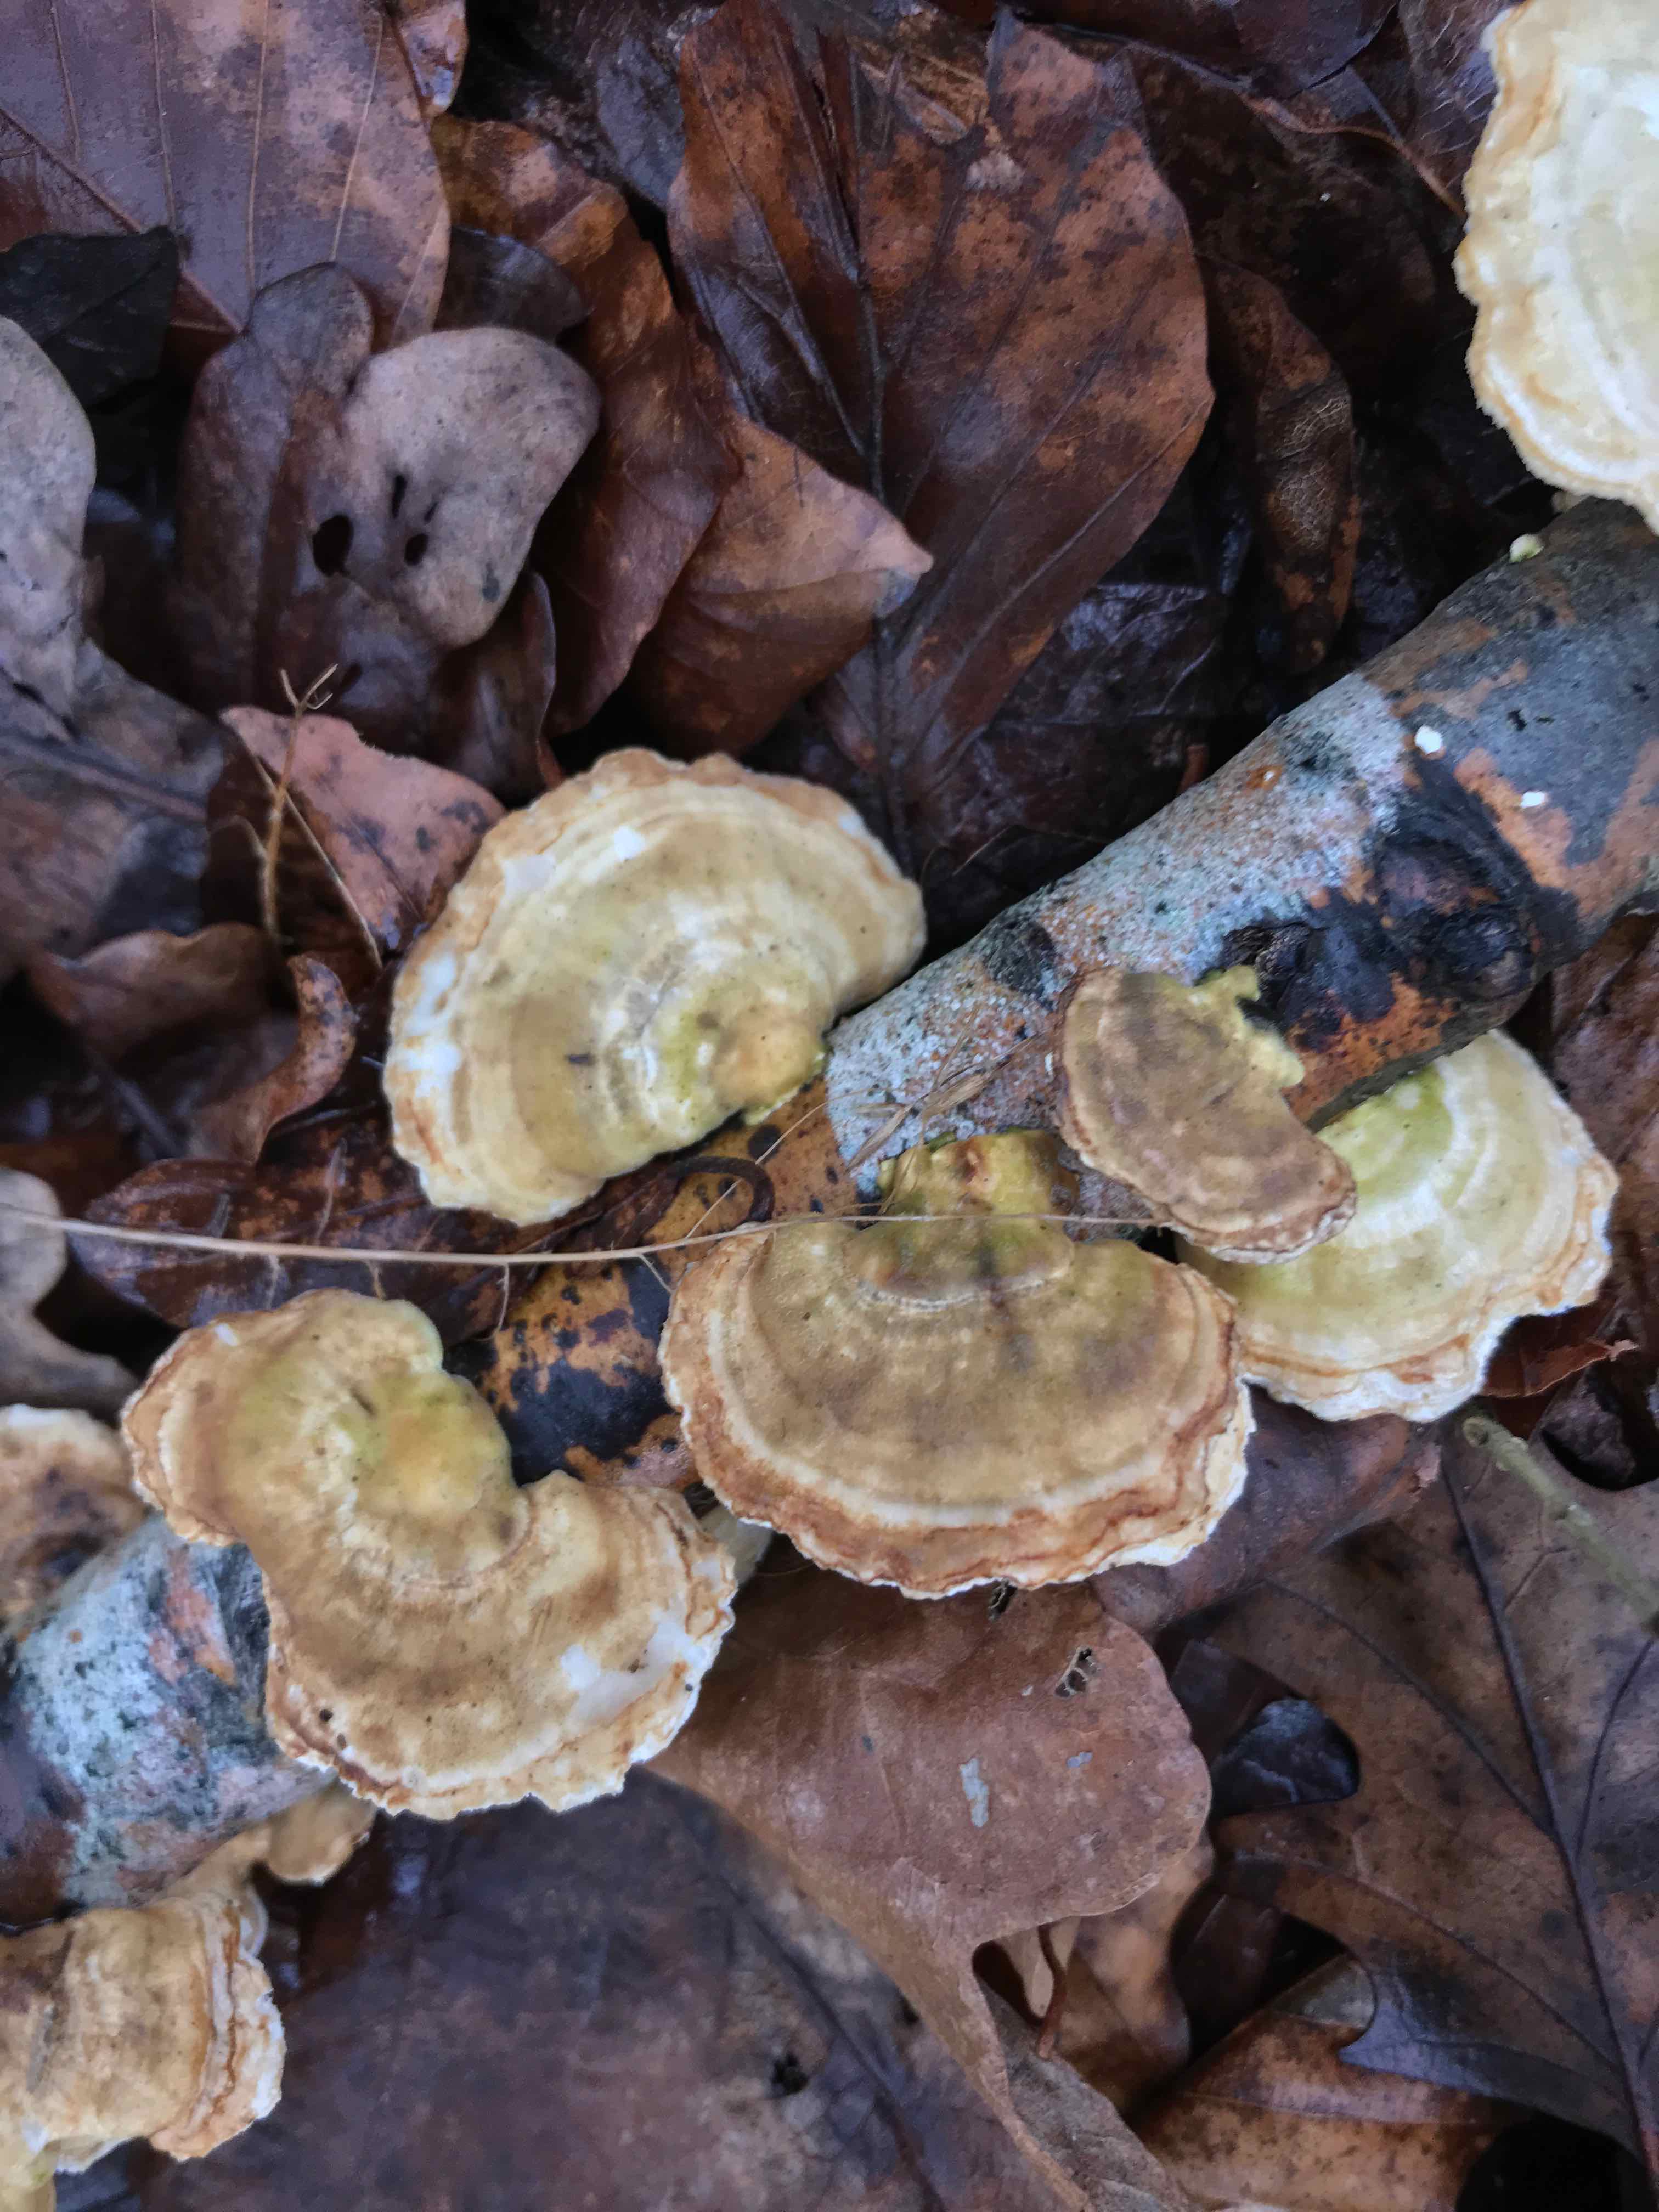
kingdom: Fungi
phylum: Basidiomycota
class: Agaricomycetes
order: Polyporales
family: Polyporaceae
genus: Trametes
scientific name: Trametes ochracea
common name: bæltet læderporesvamp
